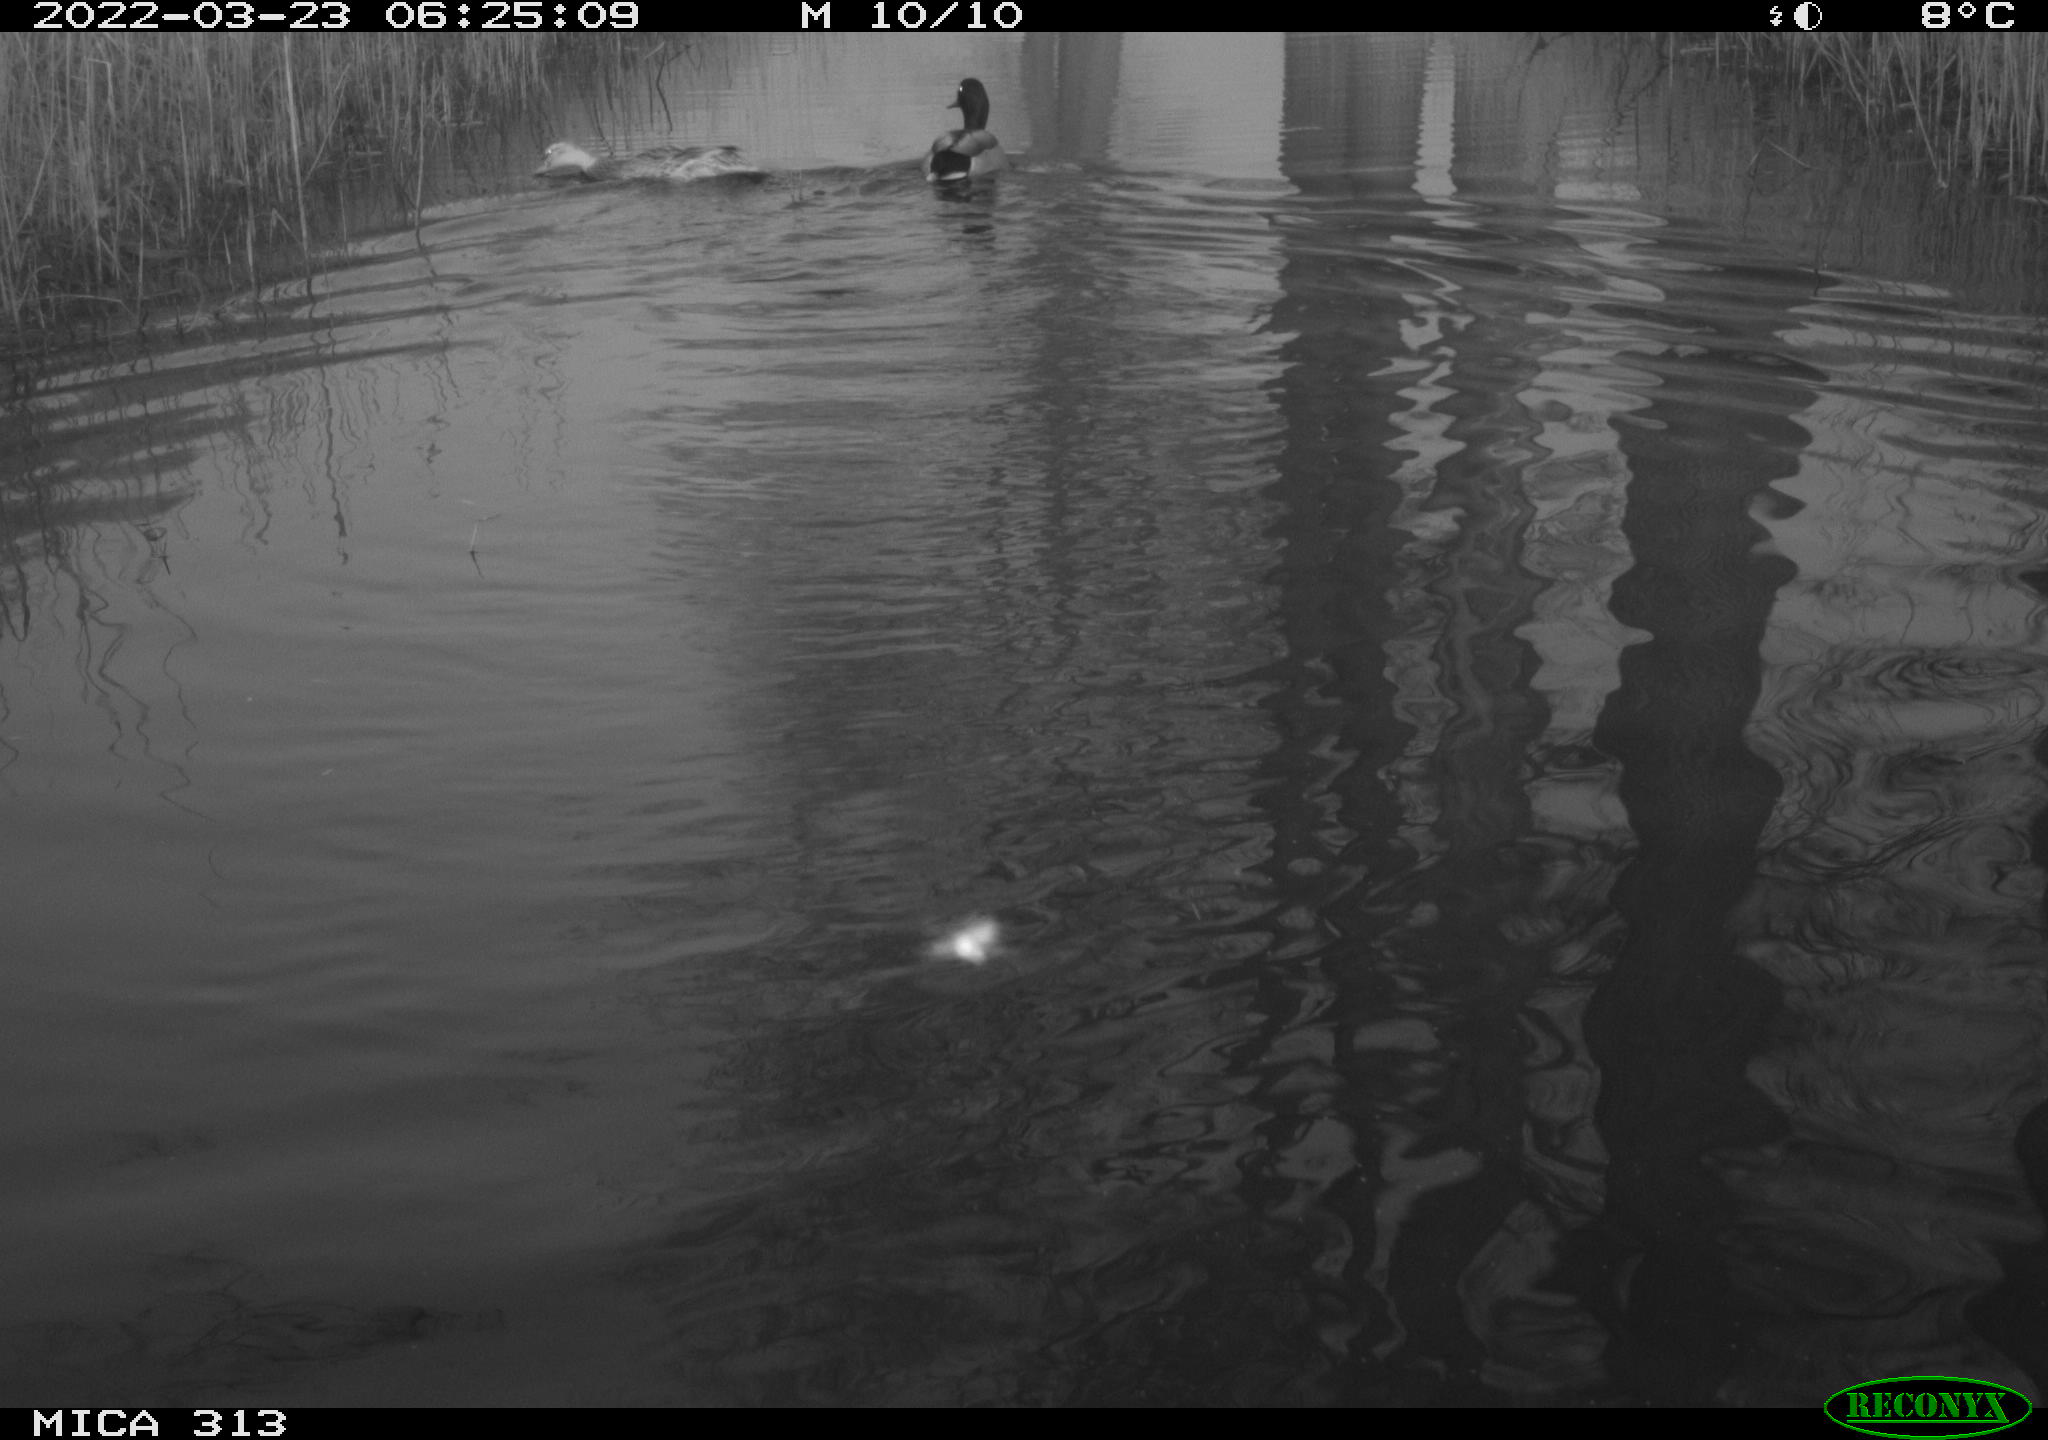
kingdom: Animalia
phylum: Chordata
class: Aves
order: Anseriformes
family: Anatidae
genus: Anas
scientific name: Anas platyrhynchos
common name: Mallard
